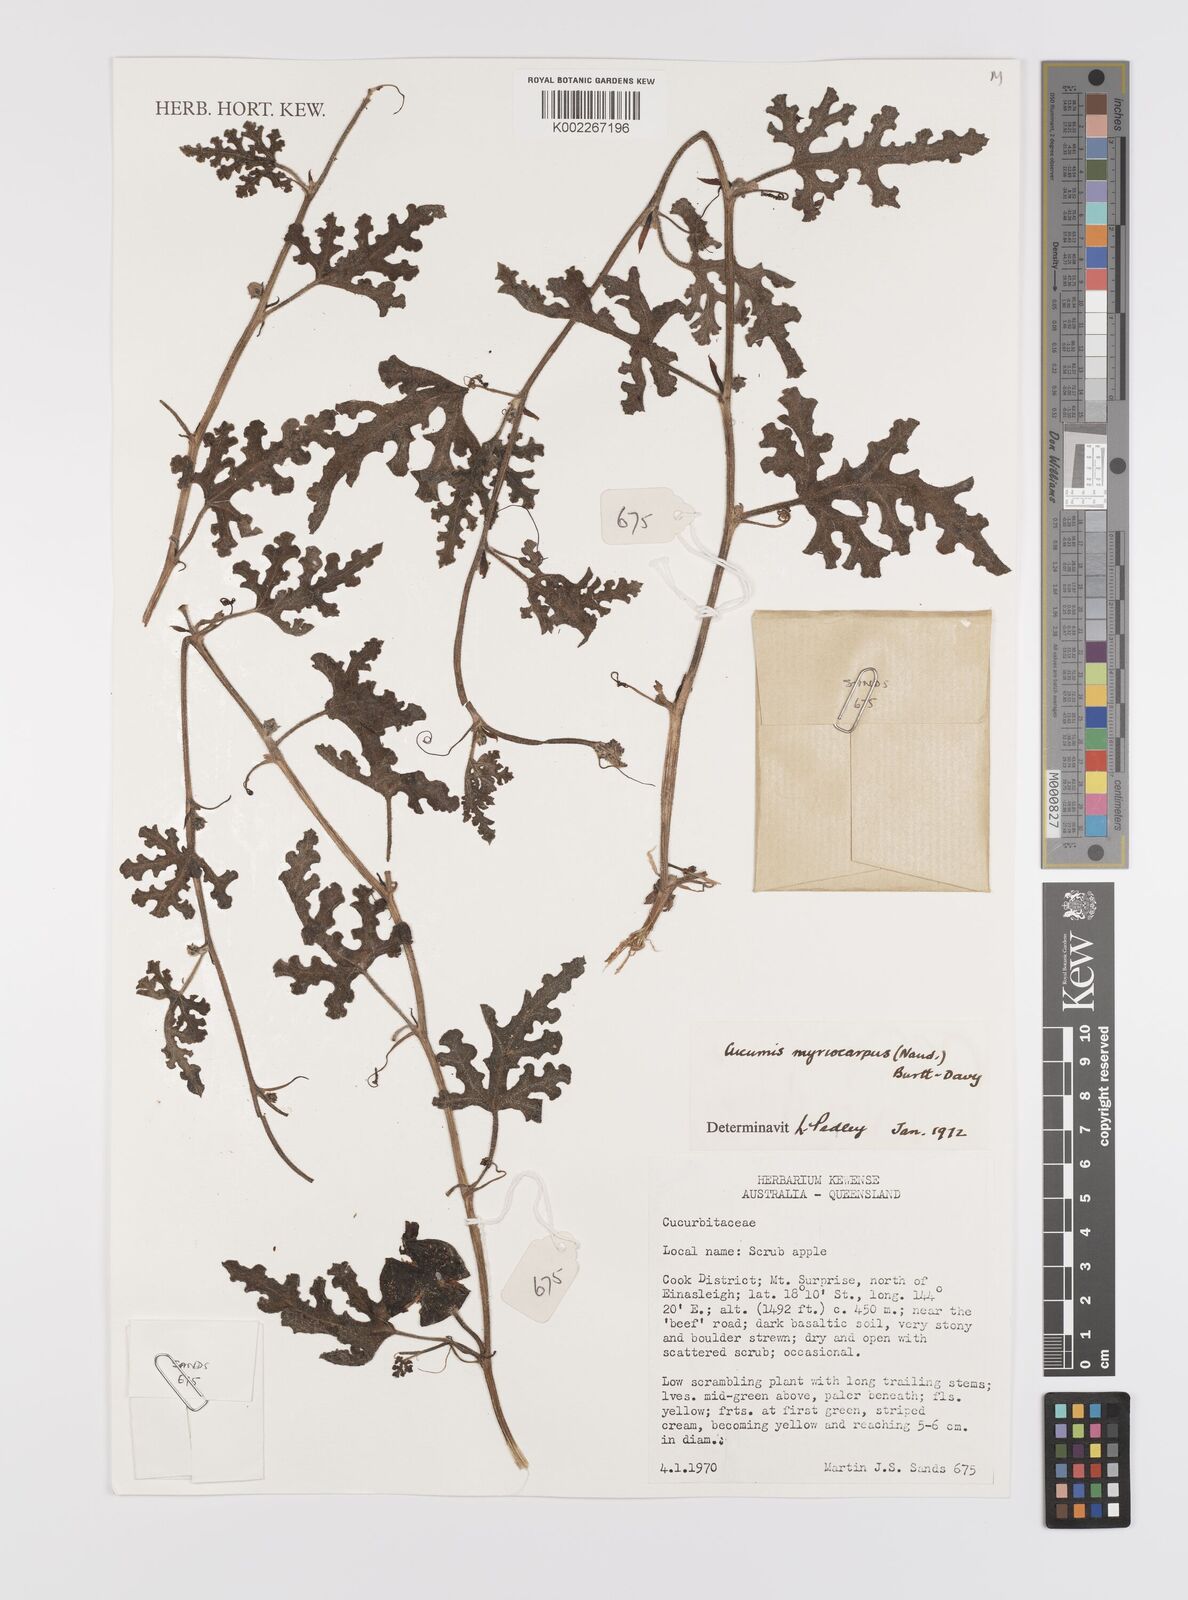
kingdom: Plantae
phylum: Tracheophyta
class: Magnoliopsida
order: Cucurbitales
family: Cucurbitaceae
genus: Cucumis
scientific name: Cucumis myriocarpus
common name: Gooseberry cucumber
